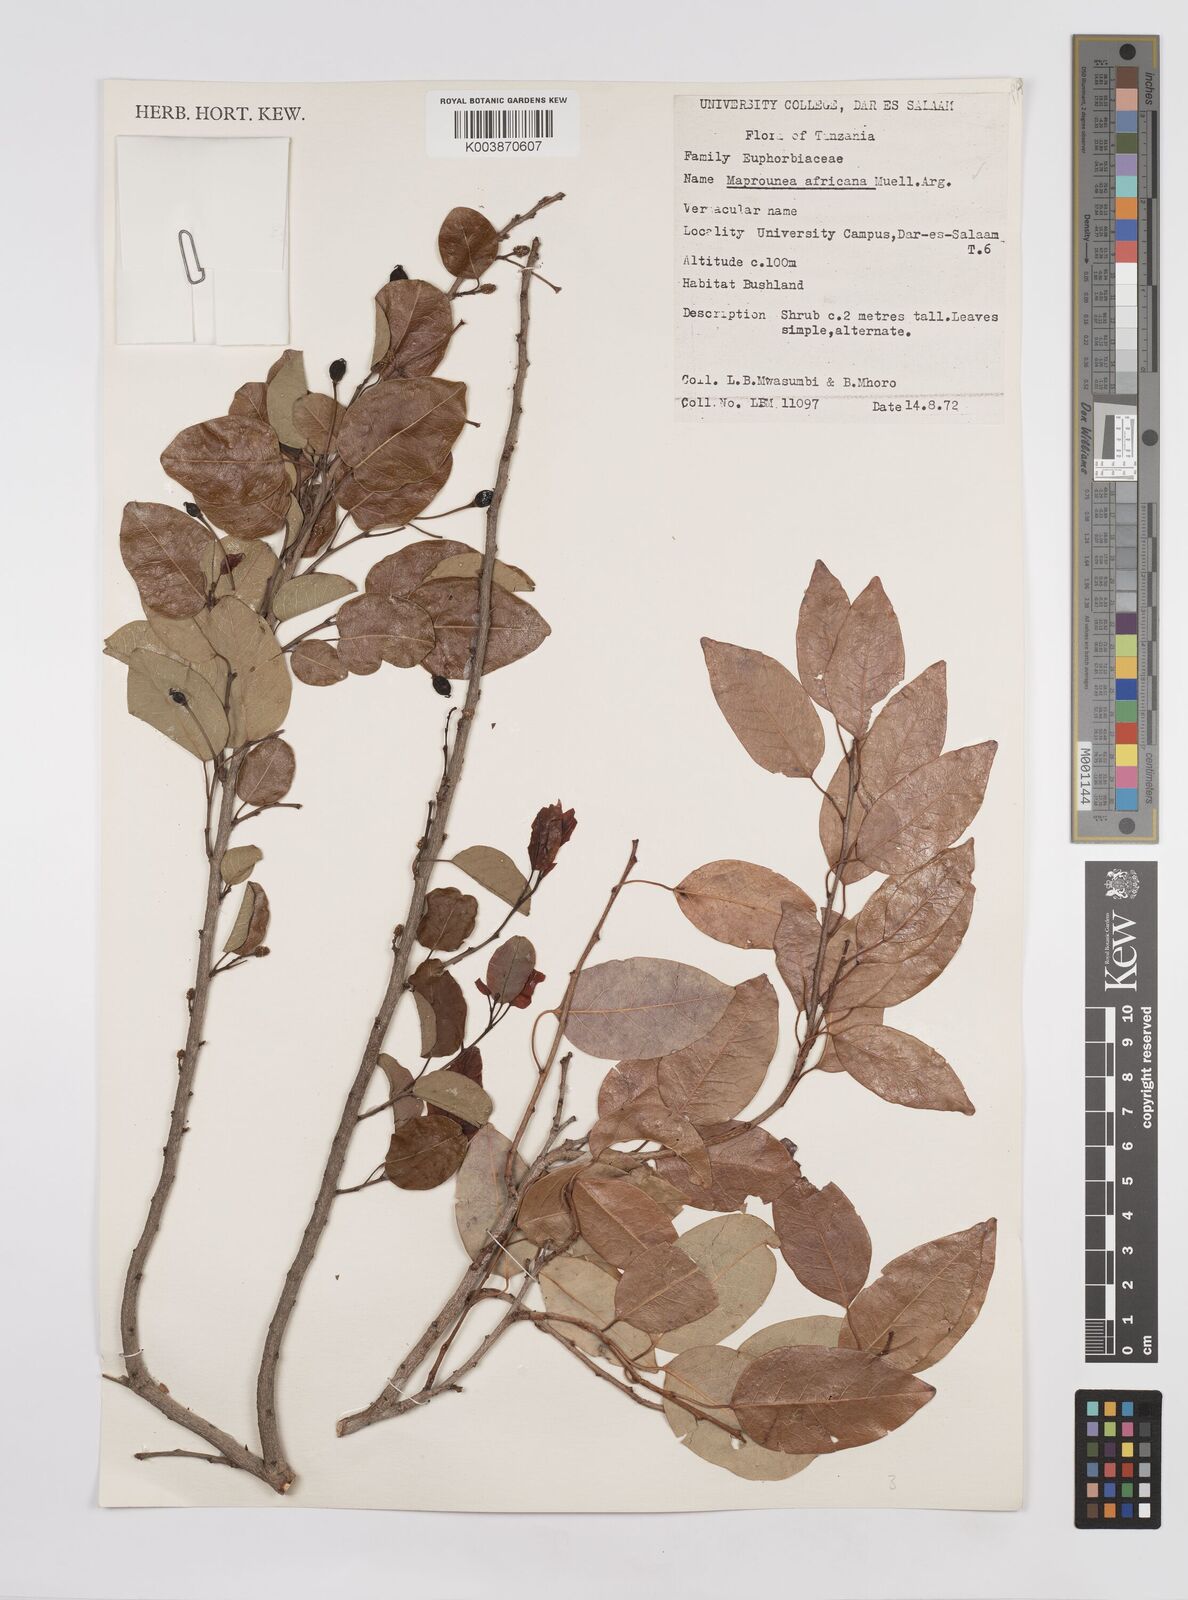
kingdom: Plantae
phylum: Tracheophyta
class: Magnoliopsida
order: Malpighiales
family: Euphorbiaceae
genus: Maprounea
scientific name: Maprounea africana
